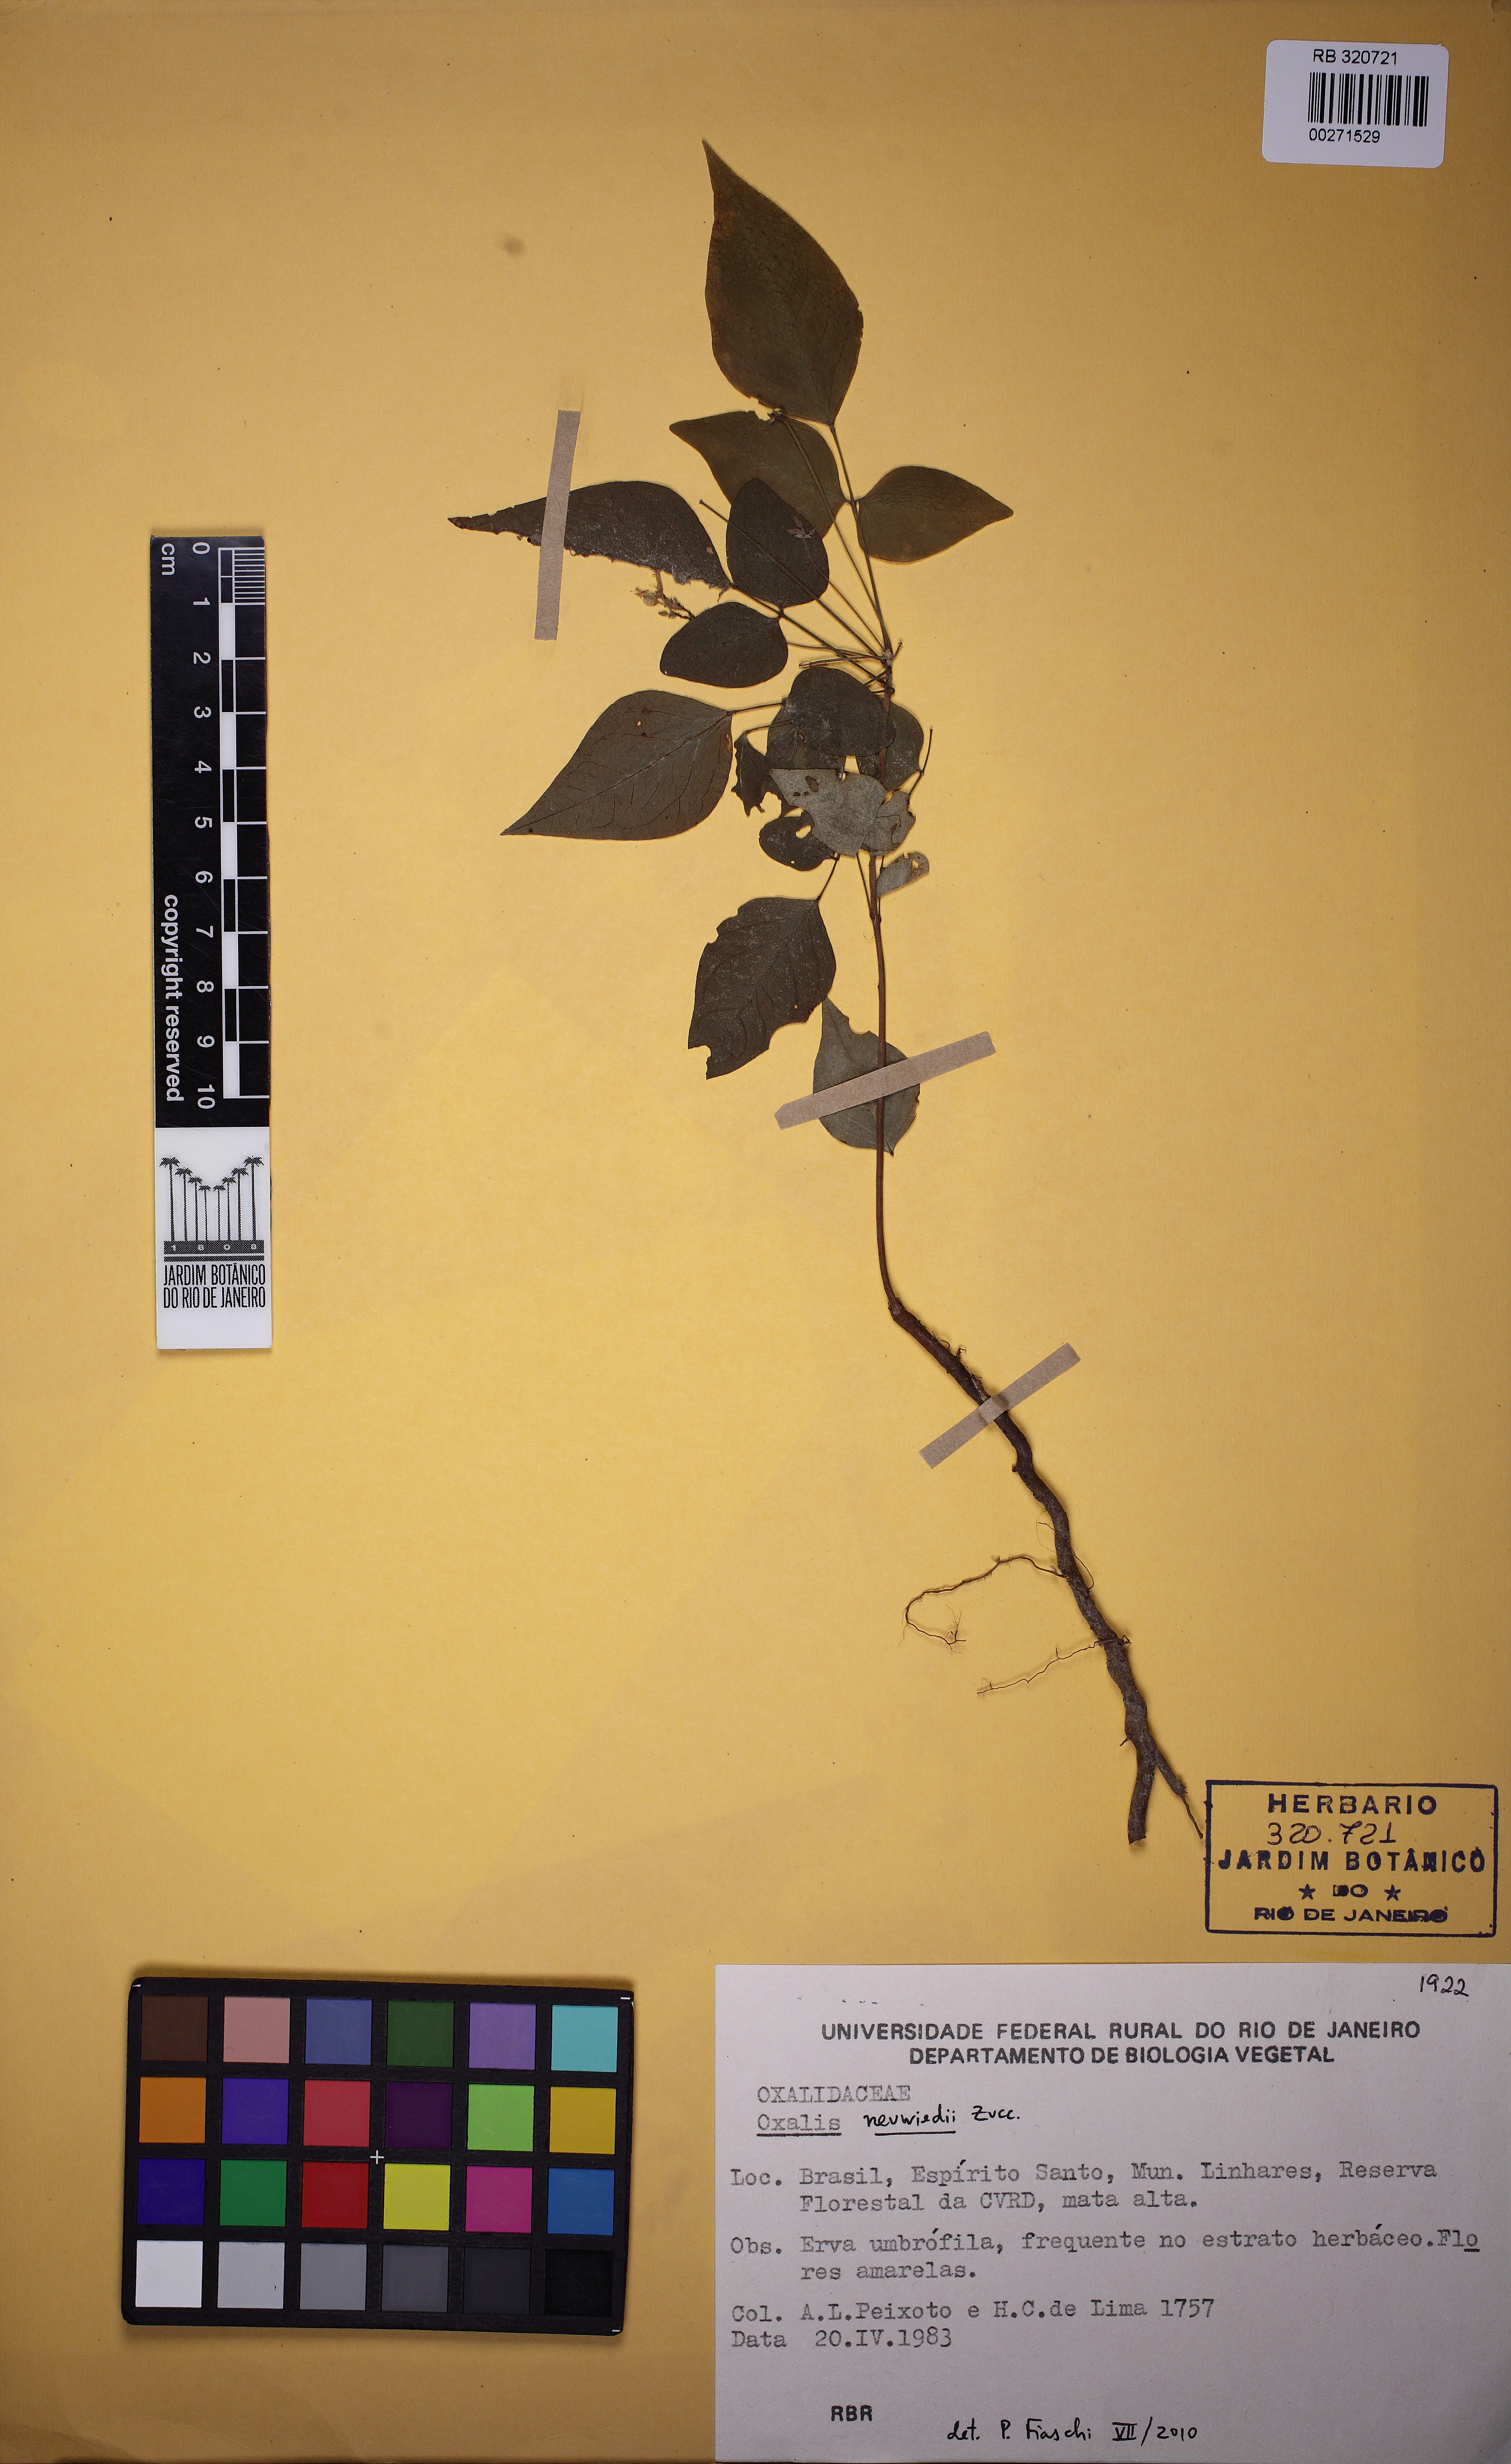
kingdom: Plantae
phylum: Tracheophyta
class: Magnoliopsida
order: Oxalidales
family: Oxalidaceae
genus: Oxalis
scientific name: Oxalis neuwiedii
